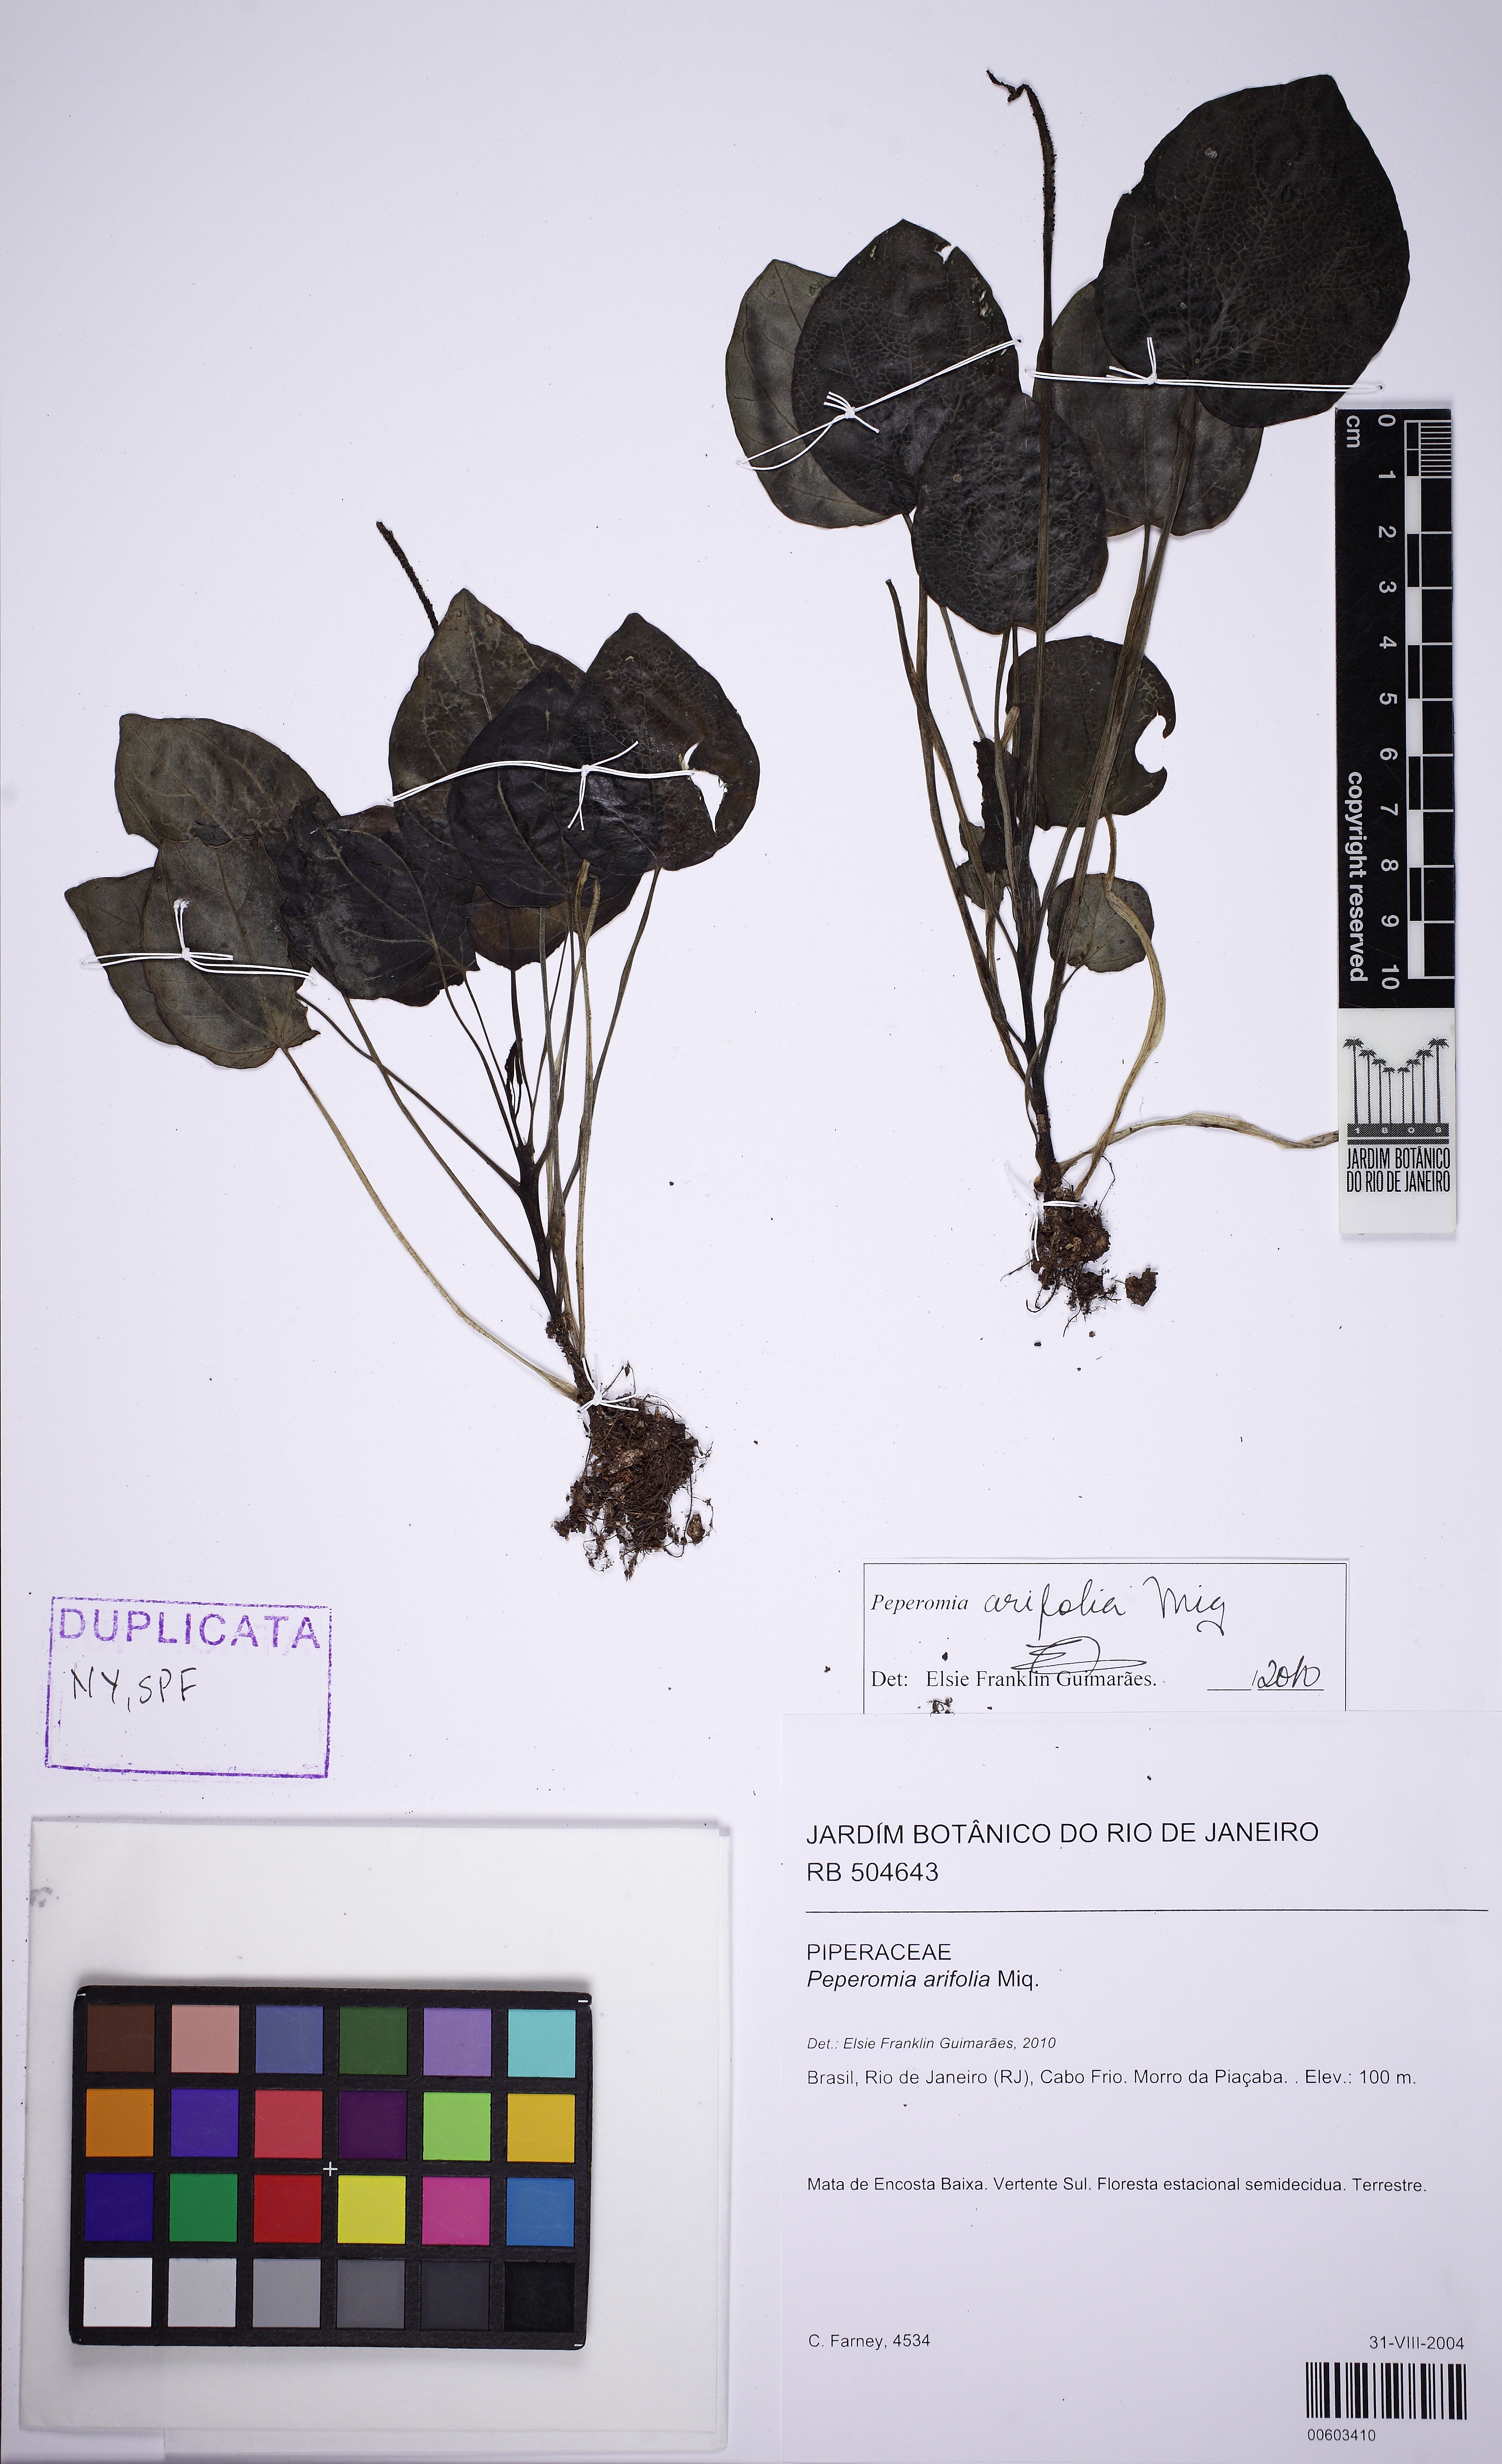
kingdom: Plantae
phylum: Tracheophyta
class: Magnoliopsida
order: Piperales
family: Piperaceae
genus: Peperomia
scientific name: Peperomia arifolia
